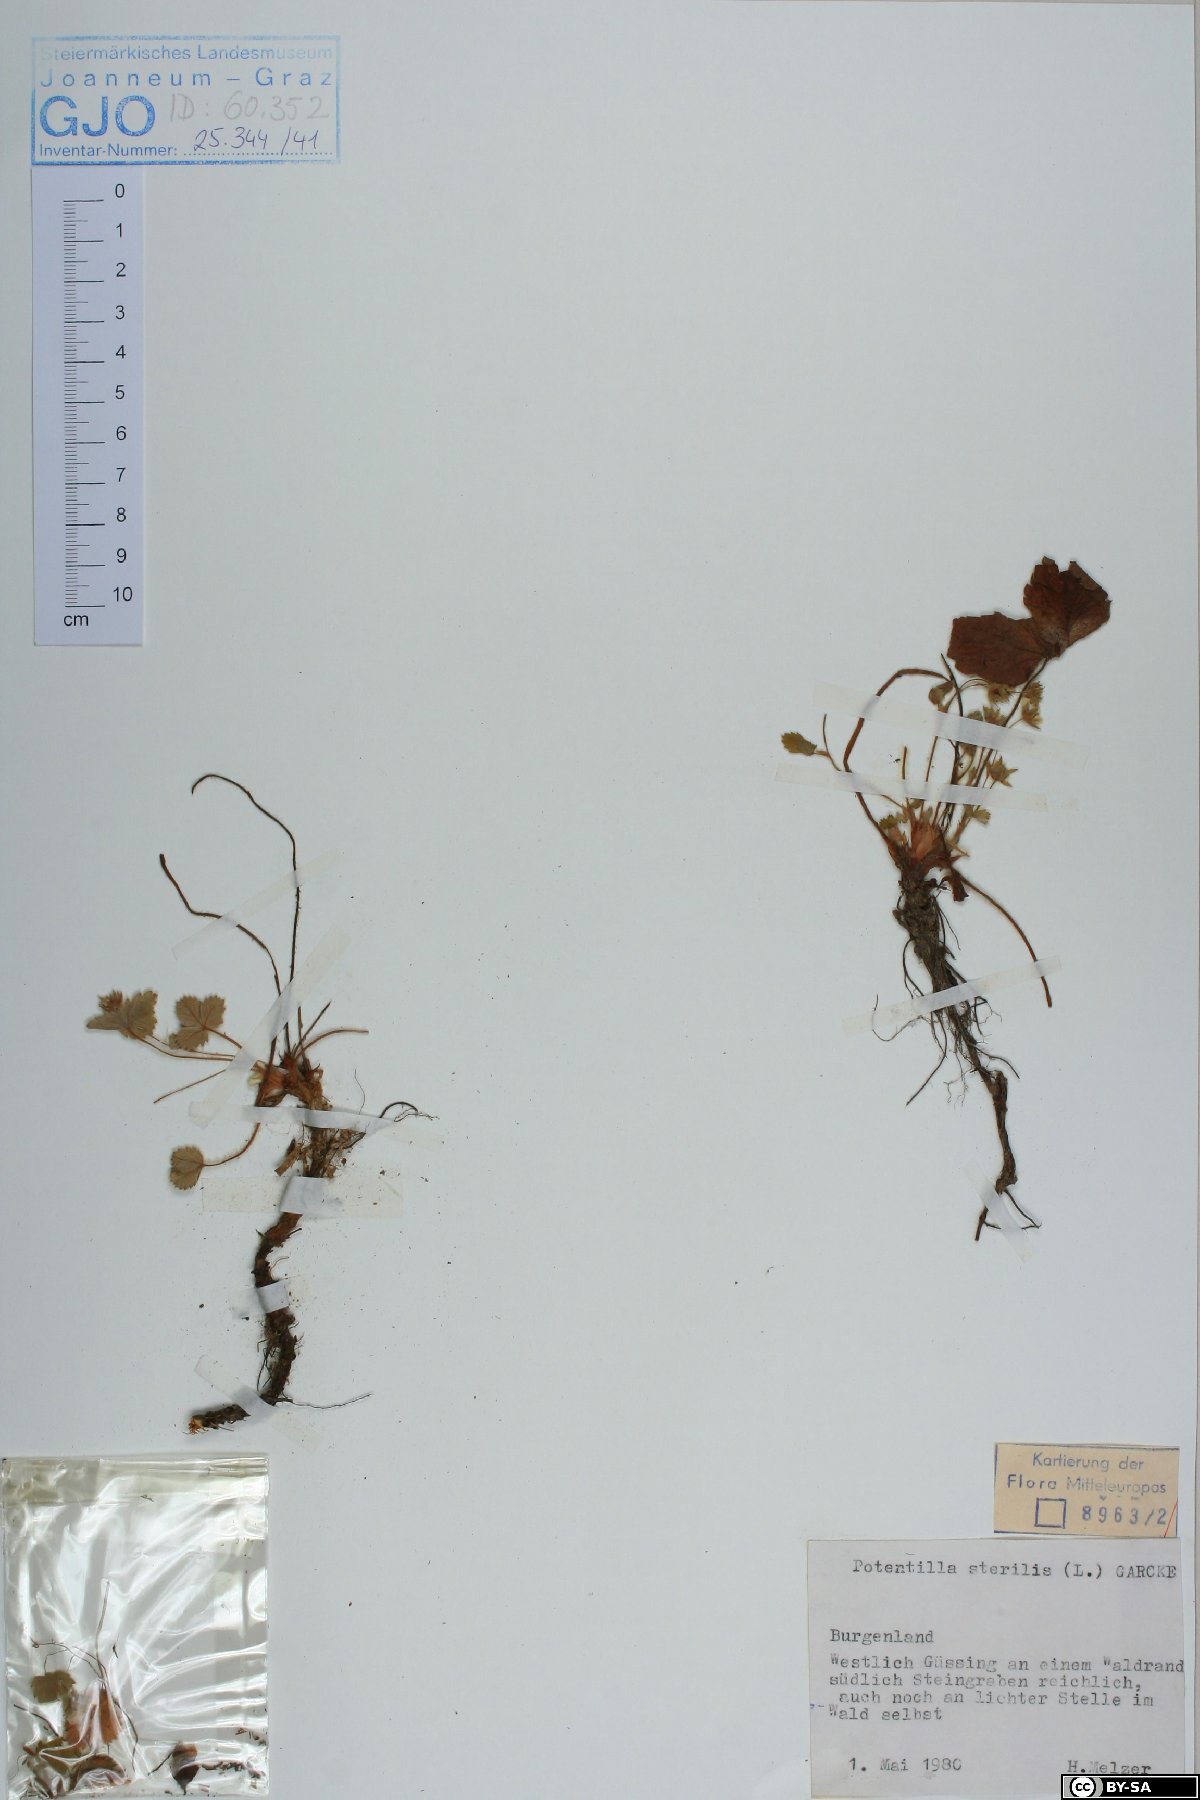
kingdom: Plantae
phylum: Tracheophyta
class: Magnoliopsida
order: Rosales
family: Rosaceae
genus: Potentilla
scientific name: Potentilla sterilis
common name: Barren strawberry
